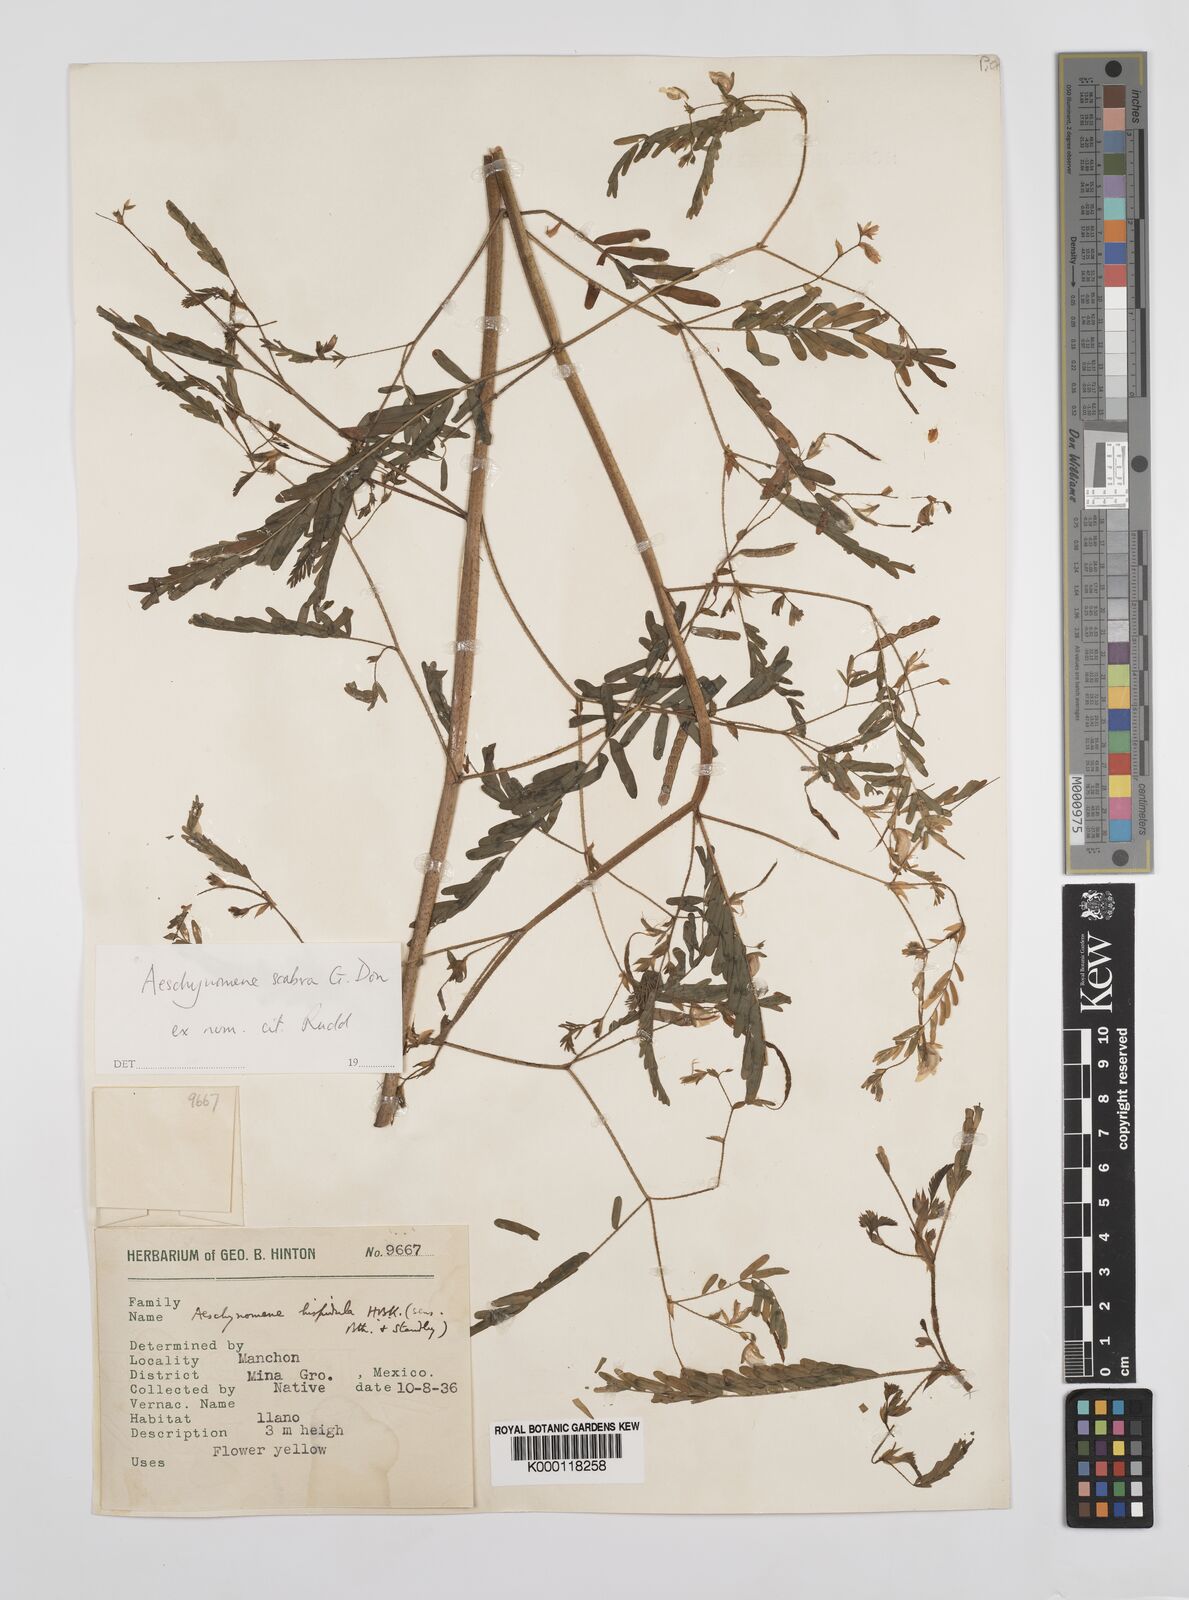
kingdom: Plantae
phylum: Tracheophyta
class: Magnoliopsida
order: Fabales
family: Fabaceae
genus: Aeschynomene
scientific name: Aeschynomene scabra
